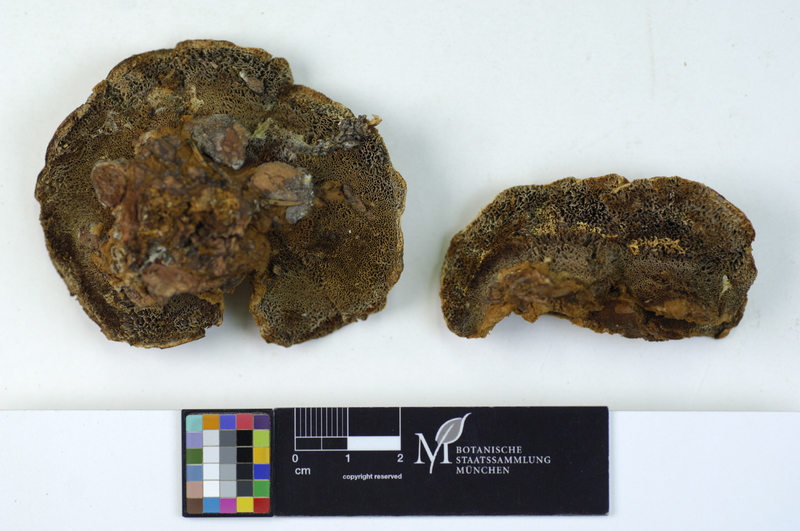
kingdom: Plantae
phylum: Tracheophyta
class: Pinopsida
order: Pinales
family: Pinaceae
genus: Picea
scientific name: Picea
